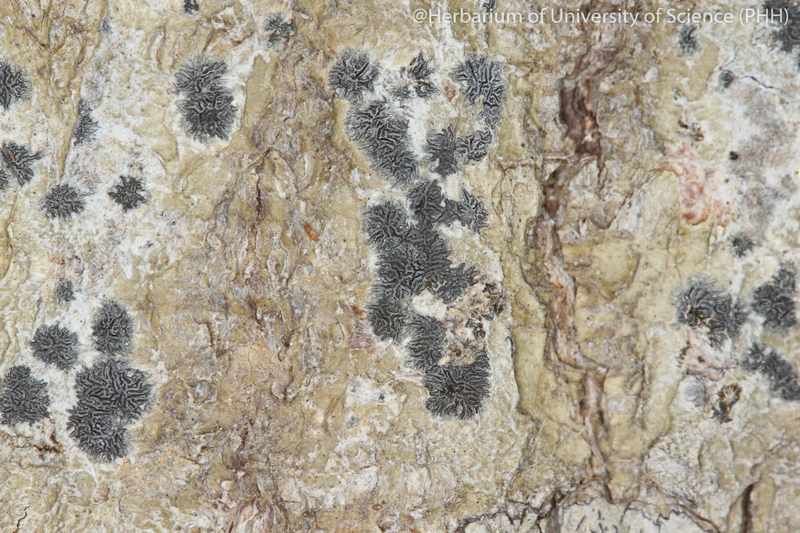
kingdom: Fungi
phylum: Ascomycota
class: Lecanoromycetes
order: Ostropales
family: Graphidaceae
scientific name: Graphidaceae
